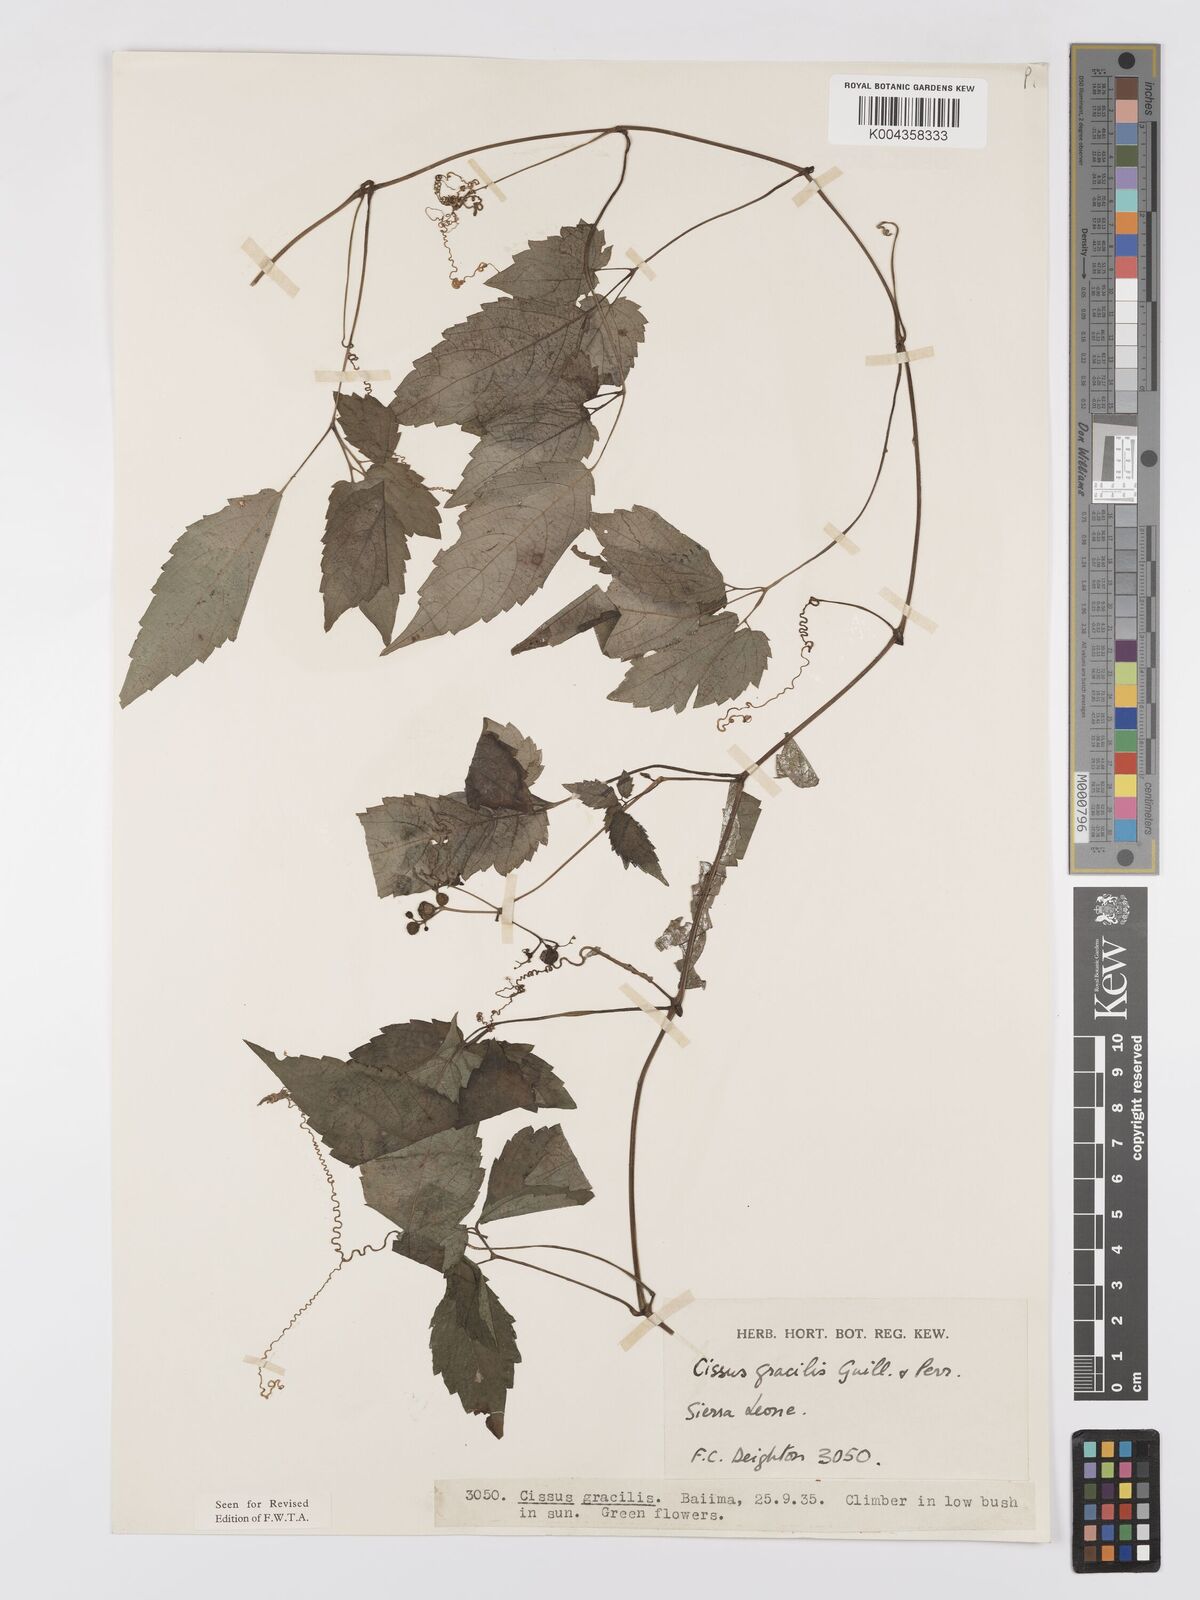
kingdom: Plantae
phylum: Tracheophyta
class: Magnoliopsida
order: Vitales
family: Vitaceae
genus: Afrocayratia
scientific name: Afrocayratia gracilis
